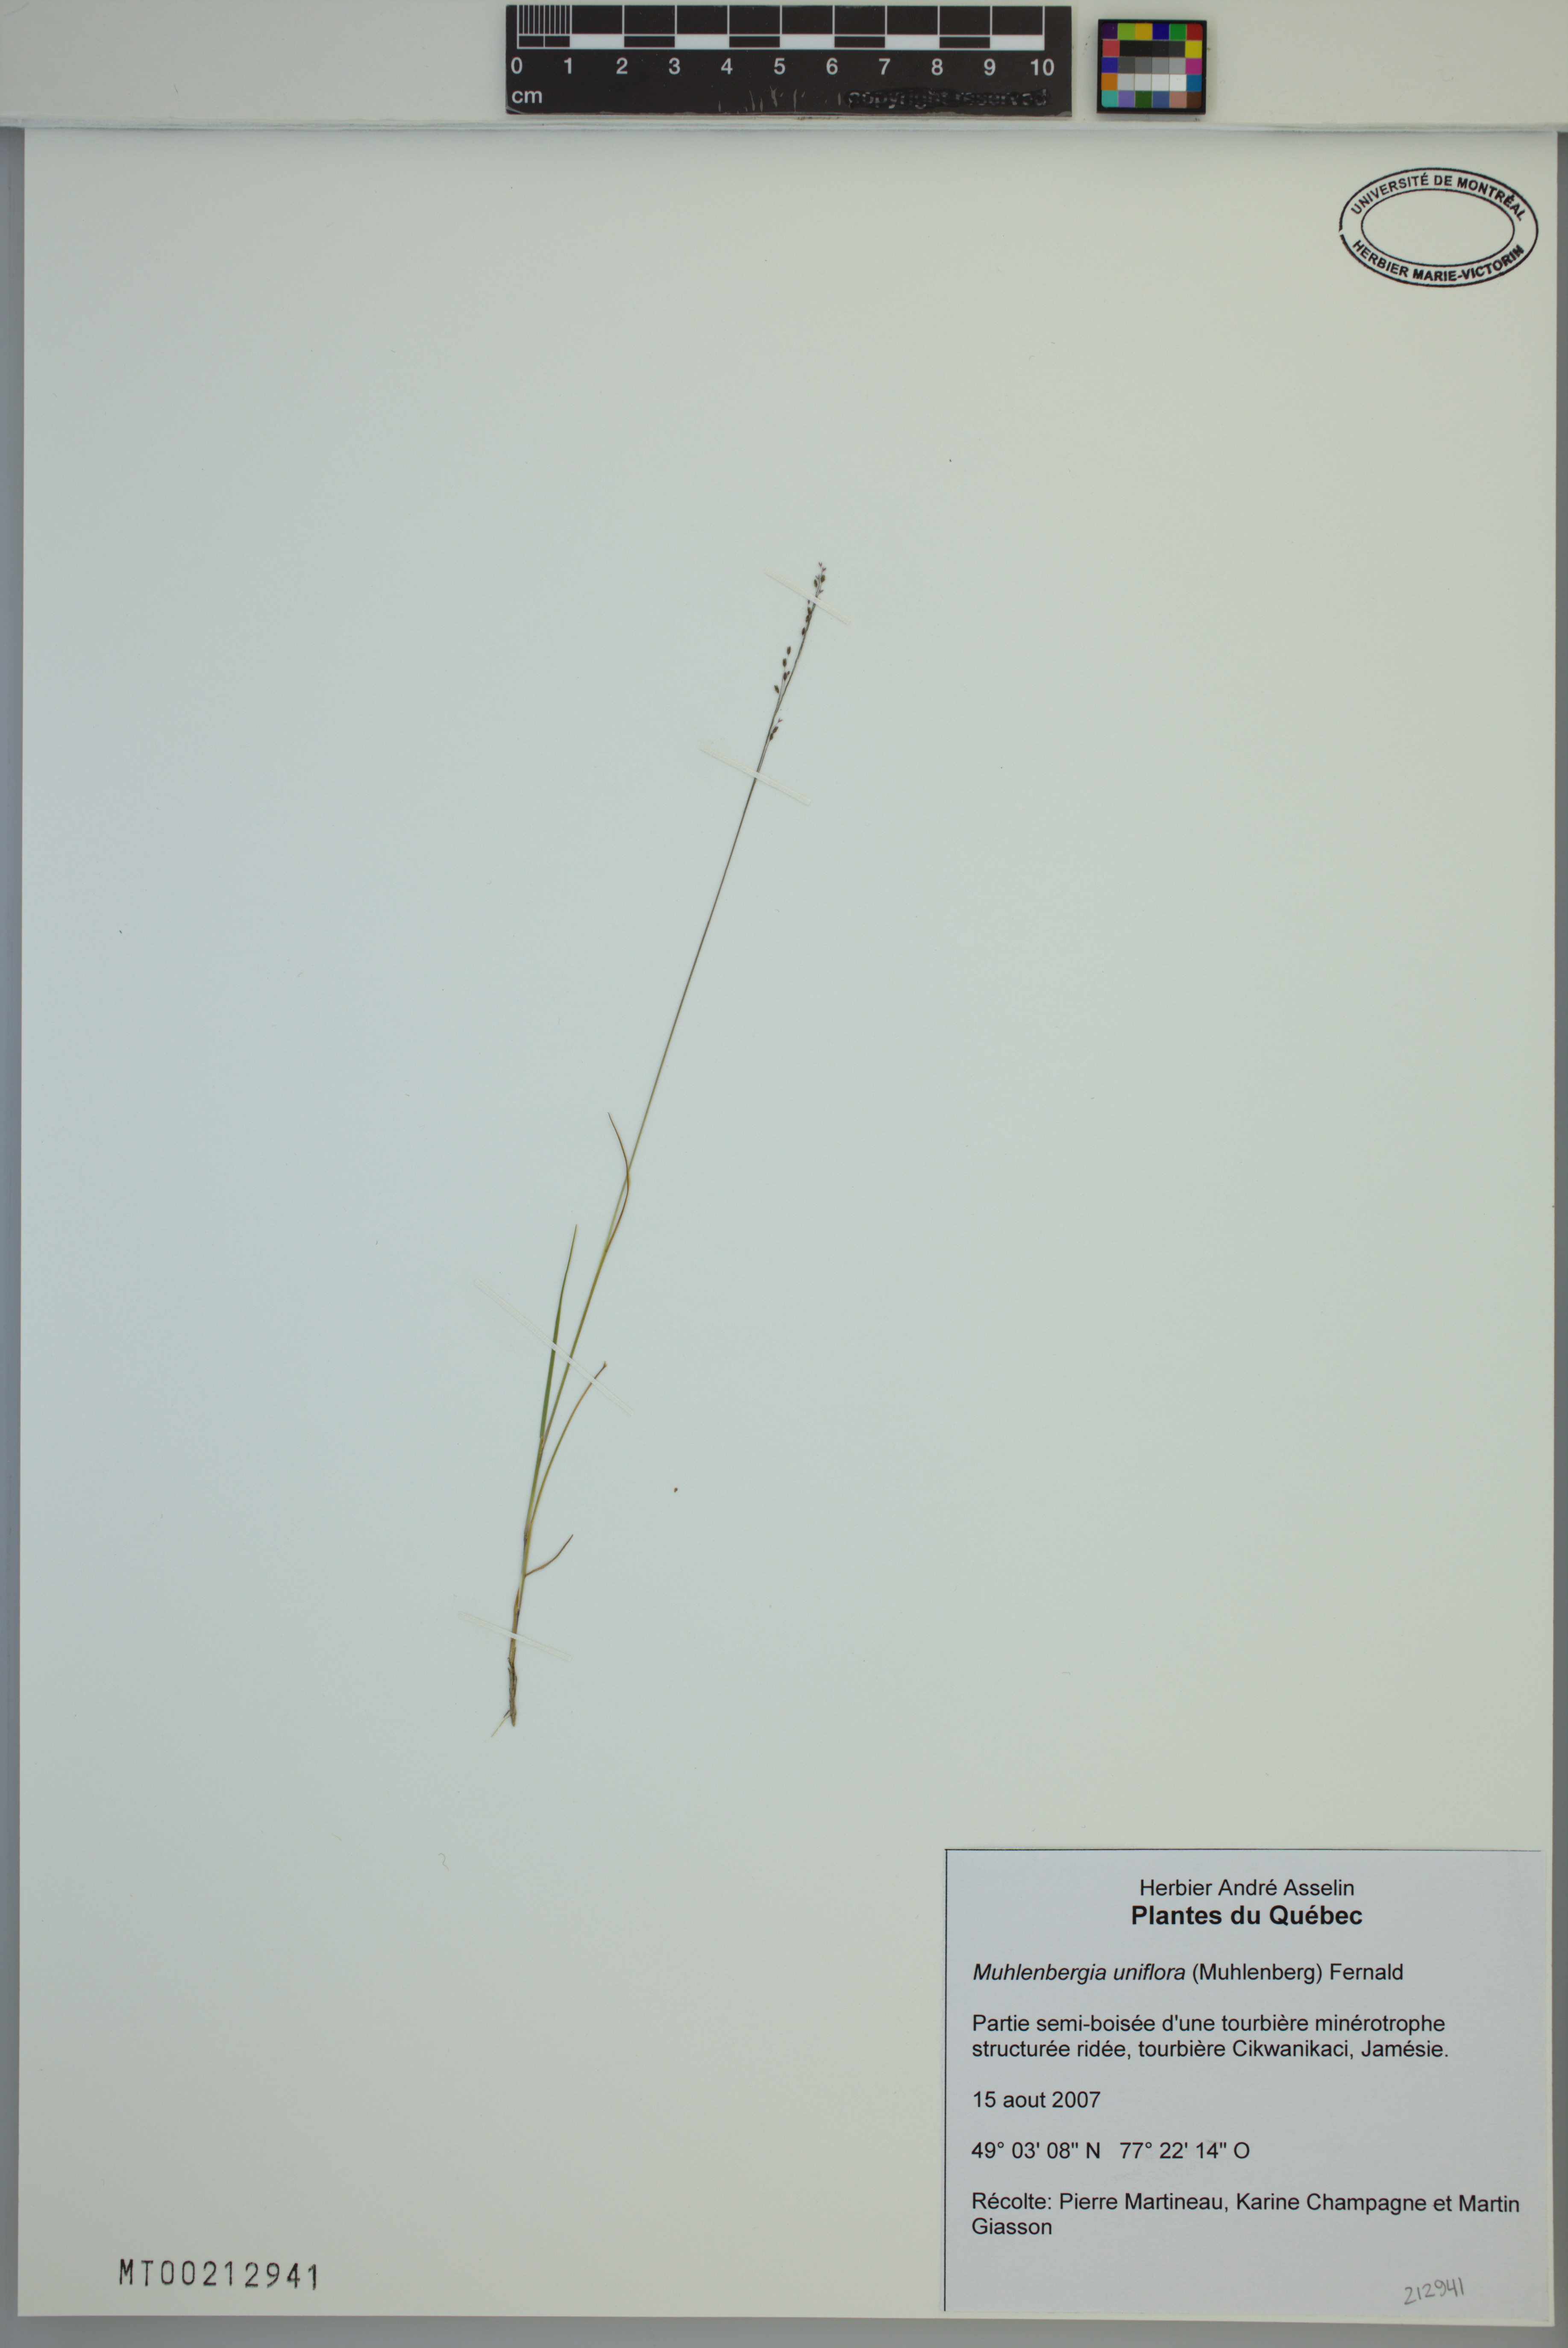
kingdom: Plantae
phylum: Tracheophyta
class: Liliopsida
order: Poales
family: Poaceae
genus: Muhlenbergia
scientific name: Muhlenbergia uniflora
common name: Bog muhly
